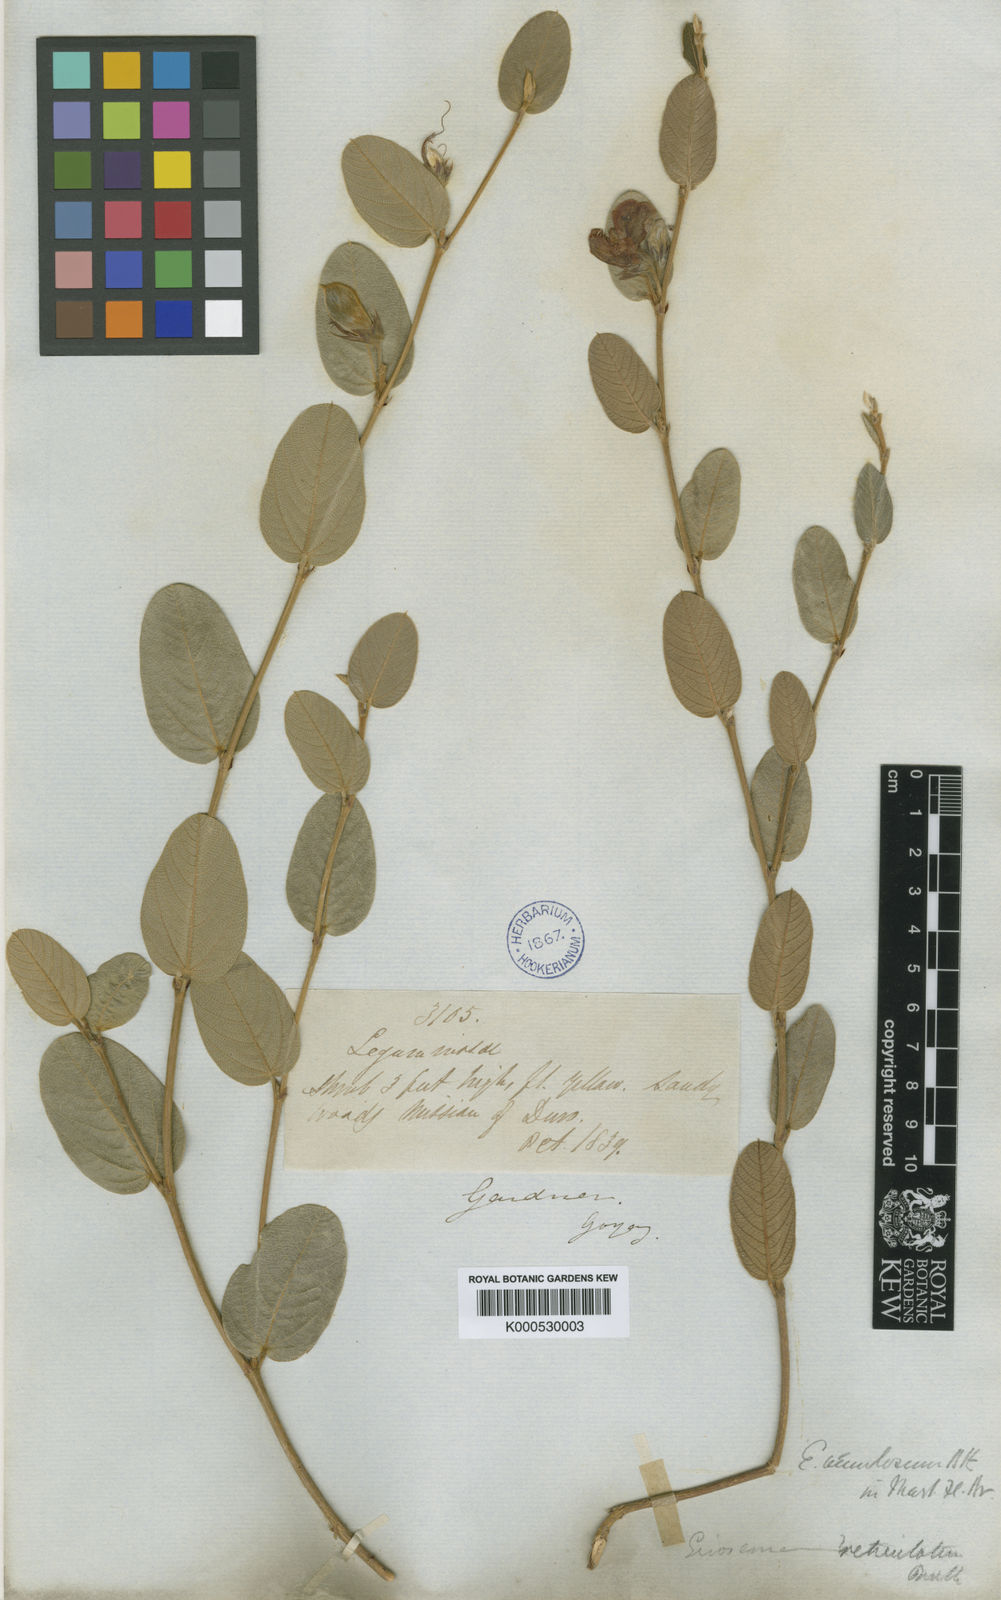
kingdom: Plantae
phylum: Tracheophyta
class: Magnoliopsida
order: Fabales
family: Fabaceae
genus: Eriosema
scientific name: Eriosema venulosum
